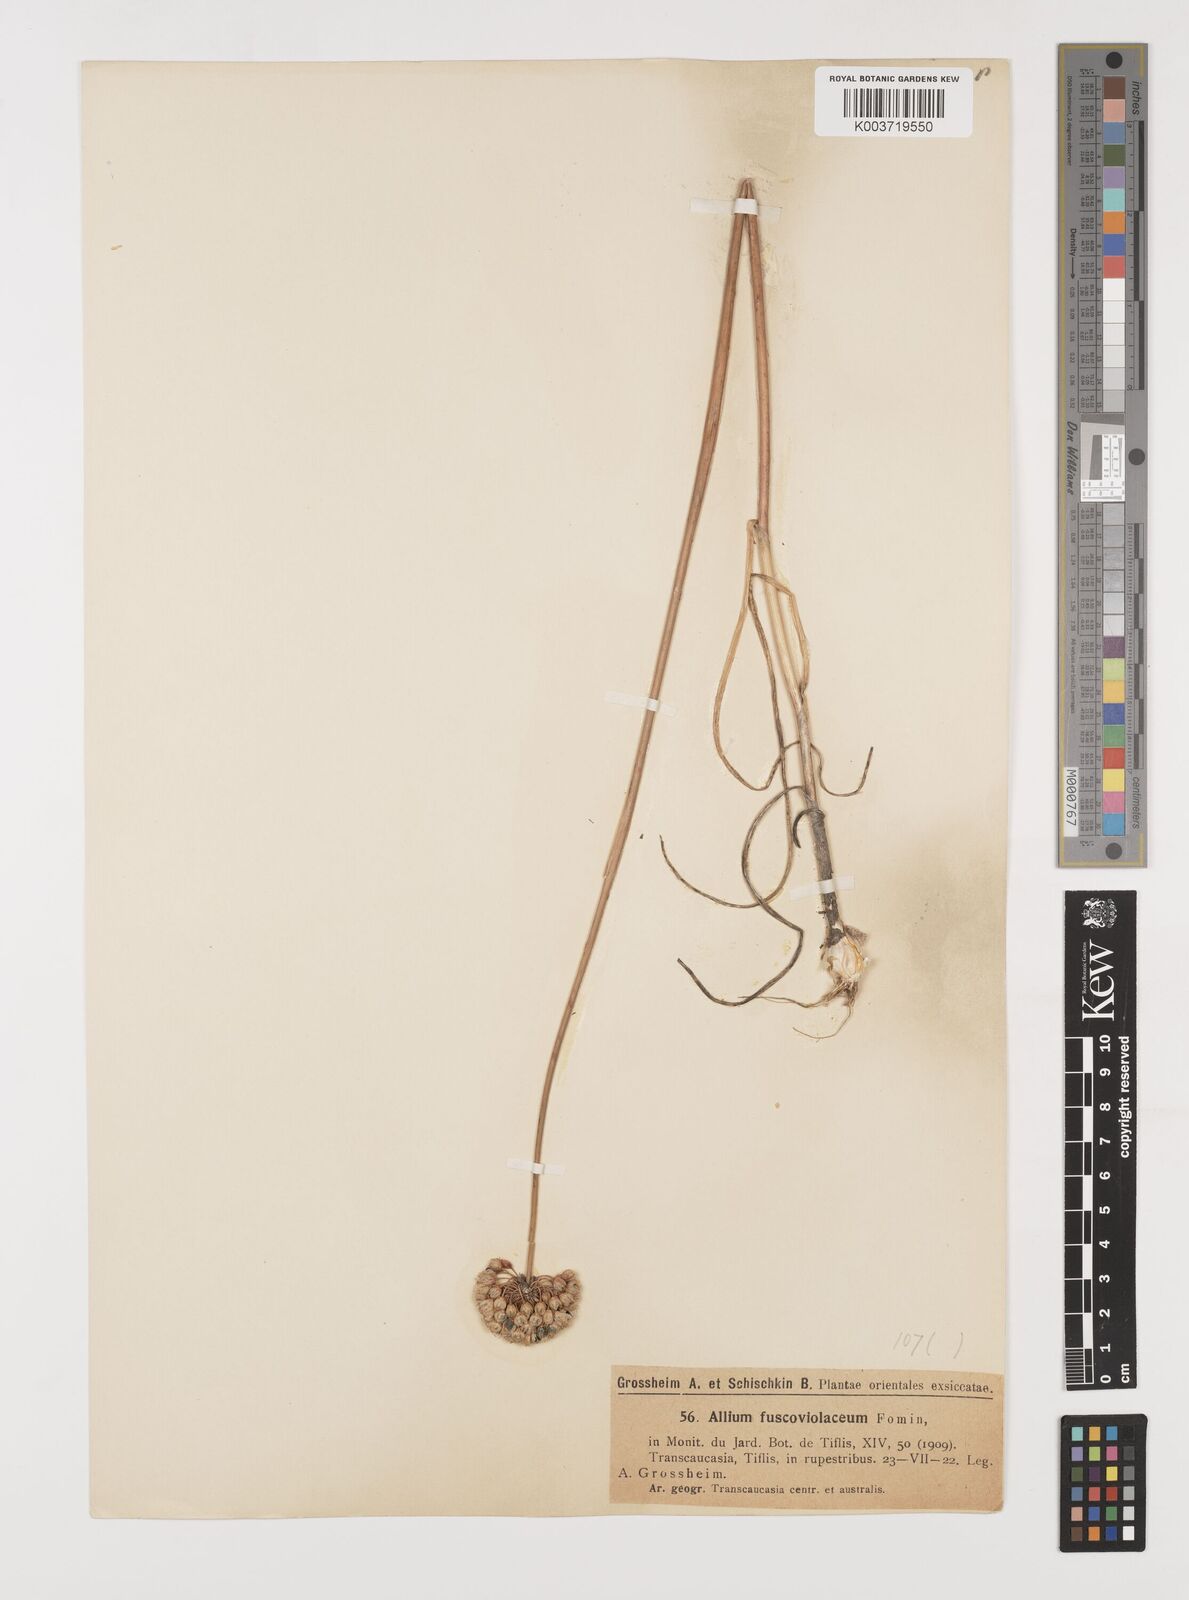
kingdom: Plantae
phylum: Tracheophyta
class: Liliopsida
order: Asparagales
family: Amaryllidaceae
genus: Allium
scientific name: Allium fuscoviolaceum
